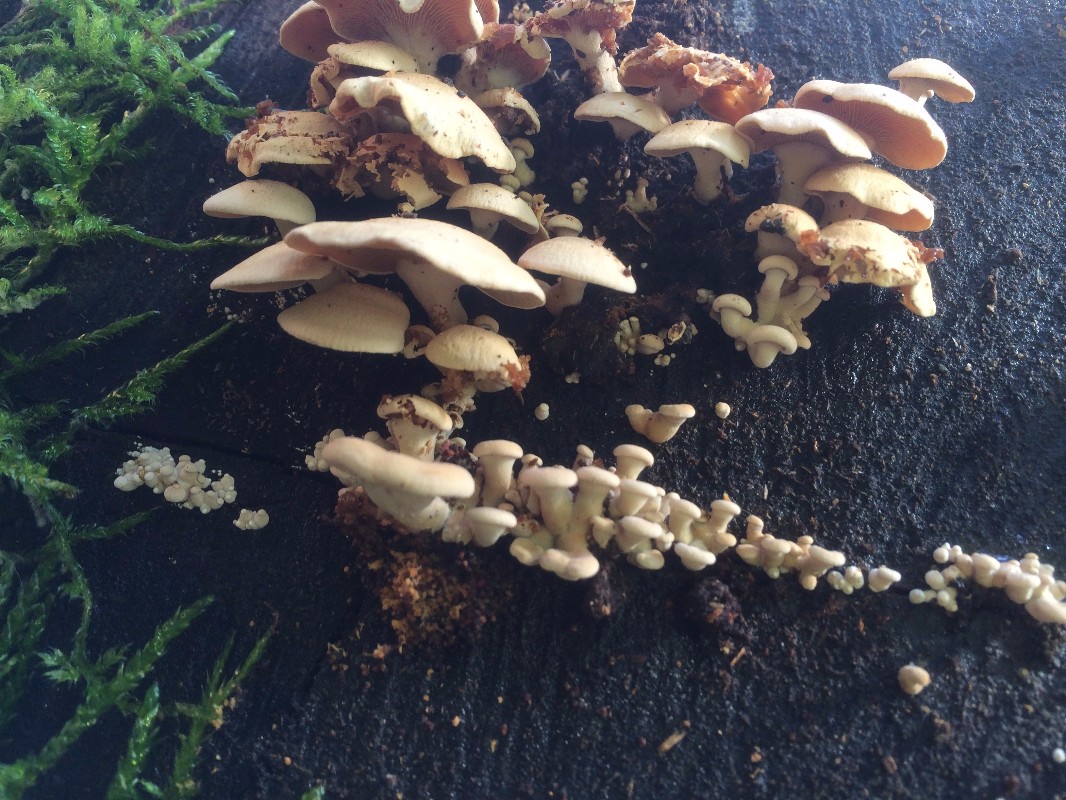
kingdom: Fungi
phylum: Basidiomycota
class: Agaricomycetes
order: Agaricales
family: Mycenaceae
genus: Panellus
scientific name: Panellus stipticus
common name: kliddet epaulethat
